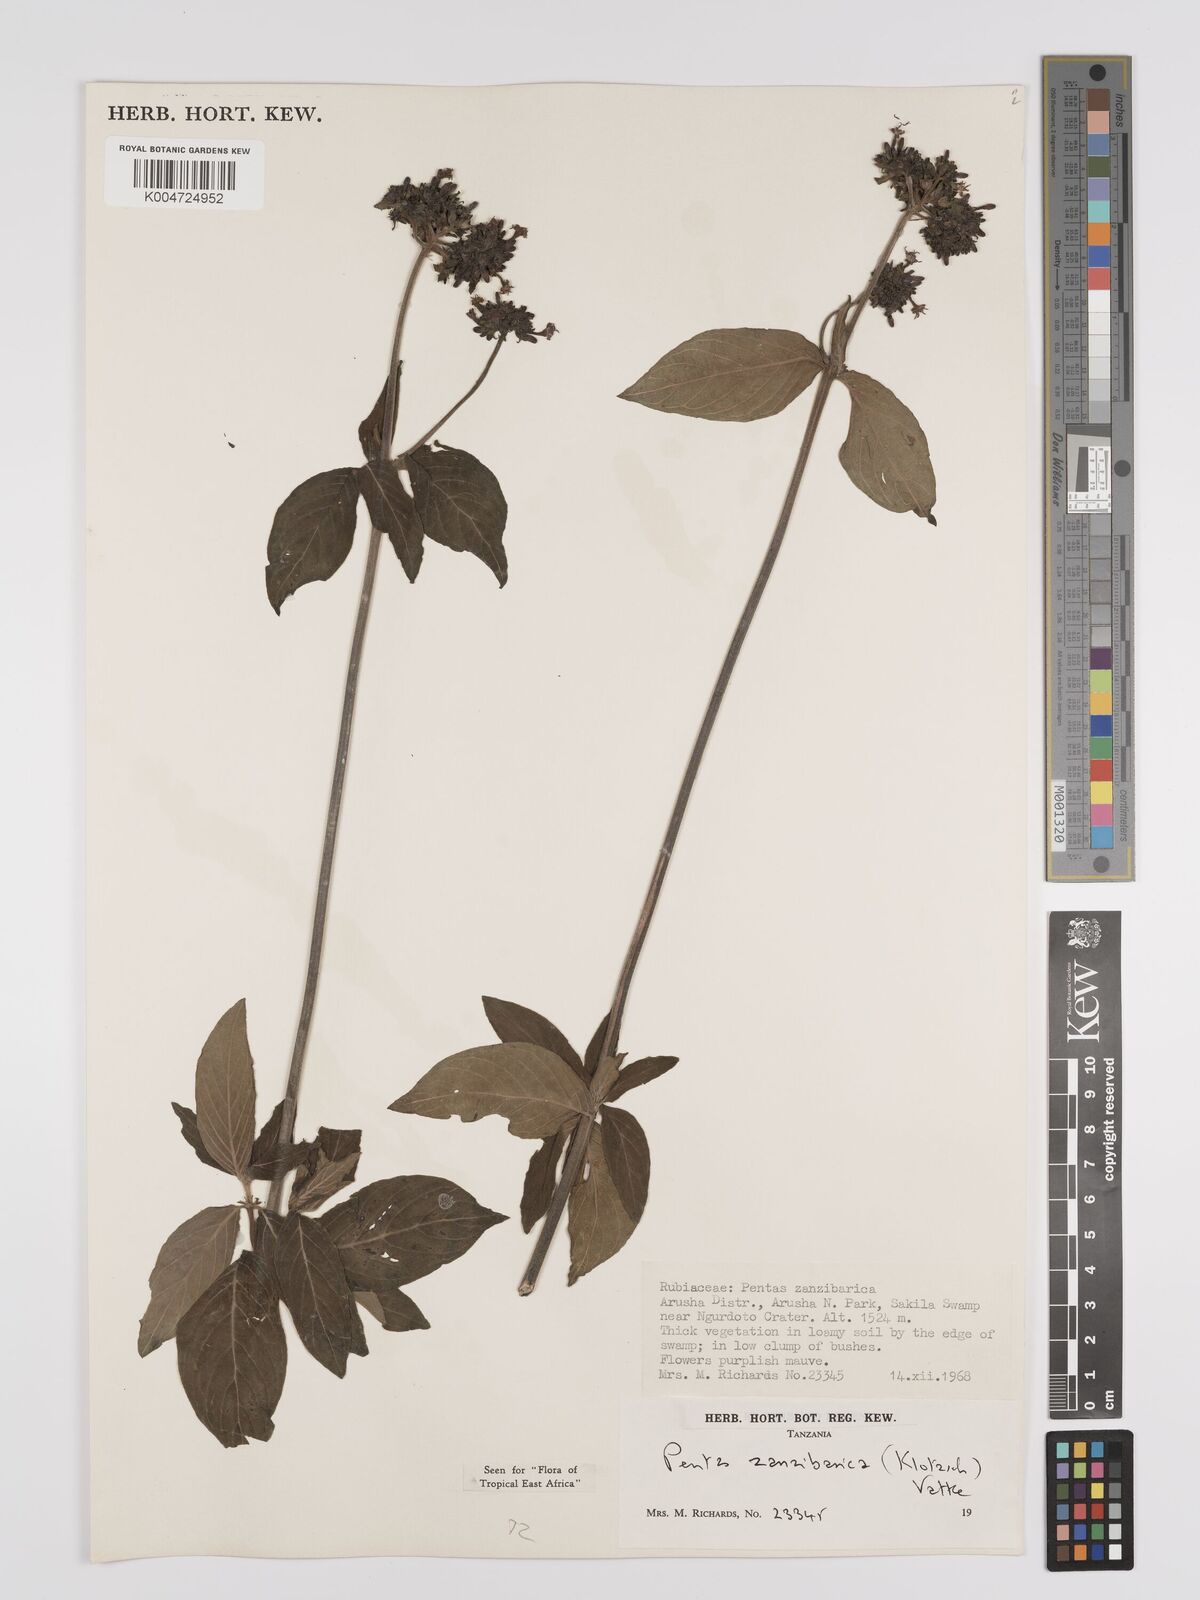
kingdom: Plantae
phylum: Tracheophyta
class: Magnoliopsida
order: Gentianales
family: Rubiaceae
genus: Pentas
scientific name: Pentas zanzibarica
